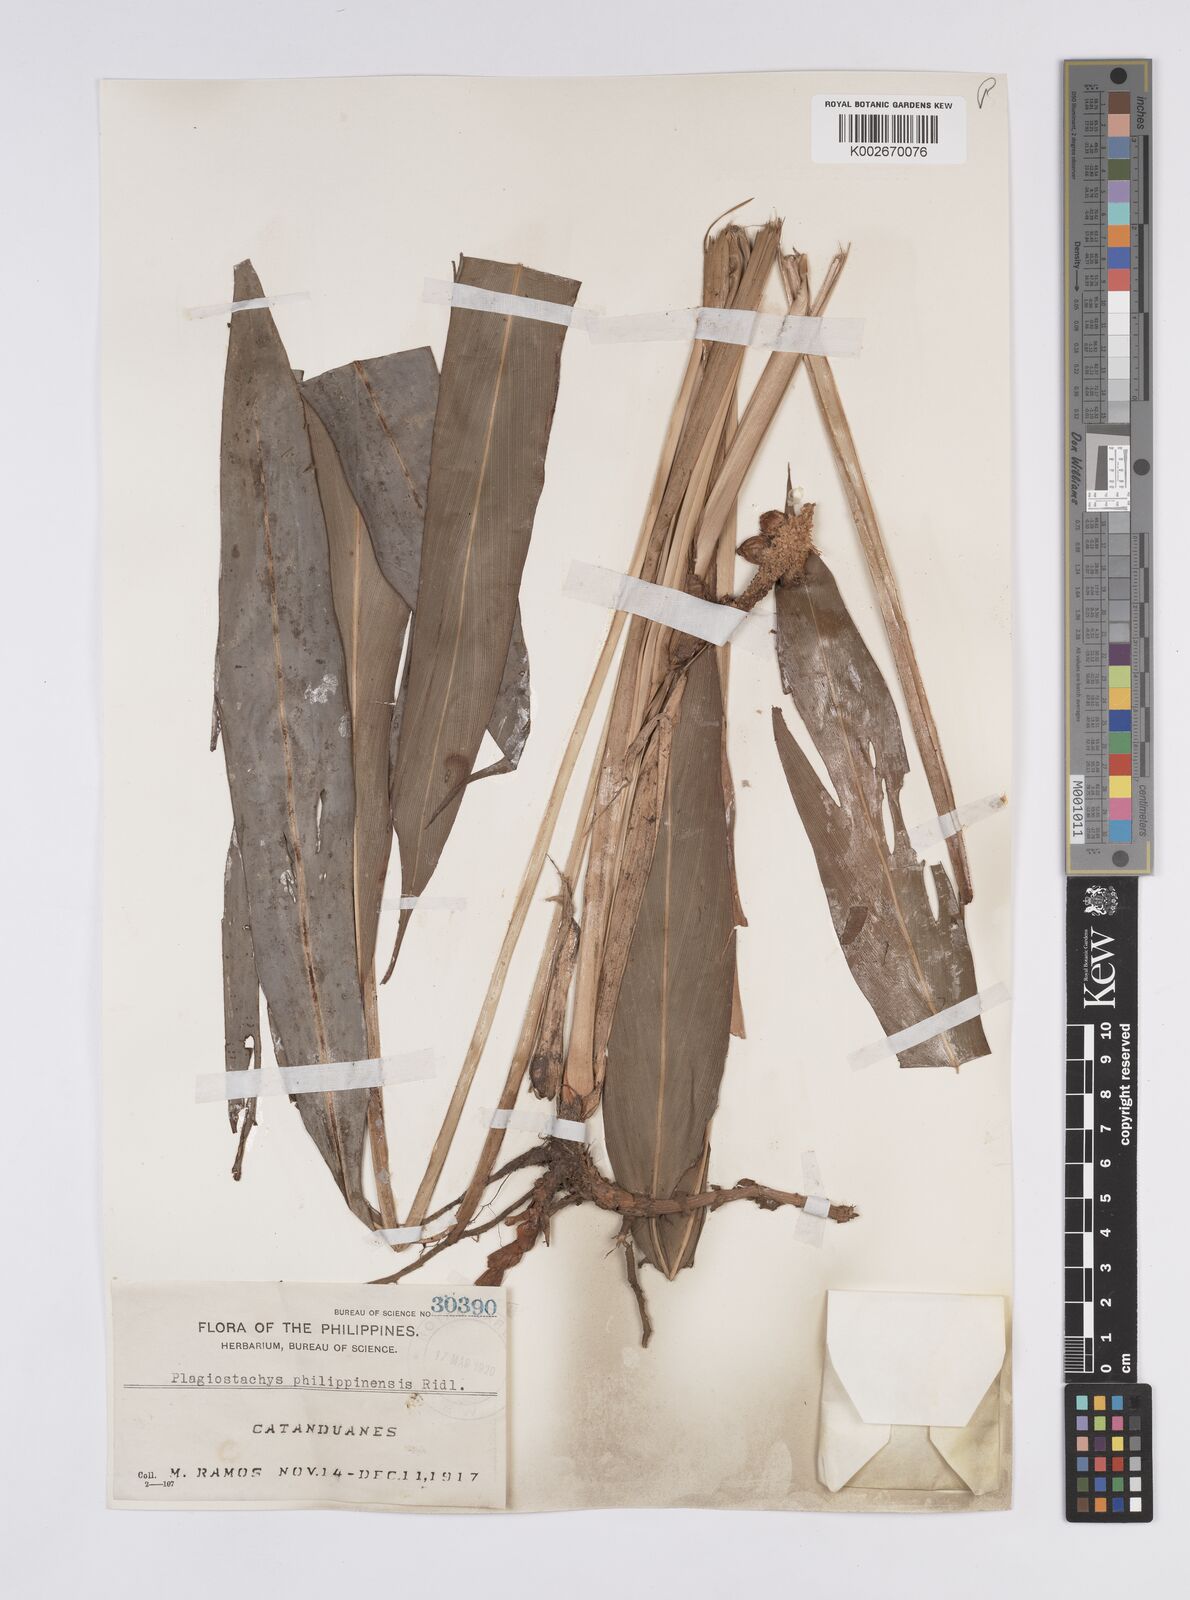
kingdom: Plantae
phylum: Tracheophyta
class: Liliopsida
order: Zingiberales
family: Zingiberaceae
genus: Plagiostachys
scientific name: Plagiostachys philippinensis
